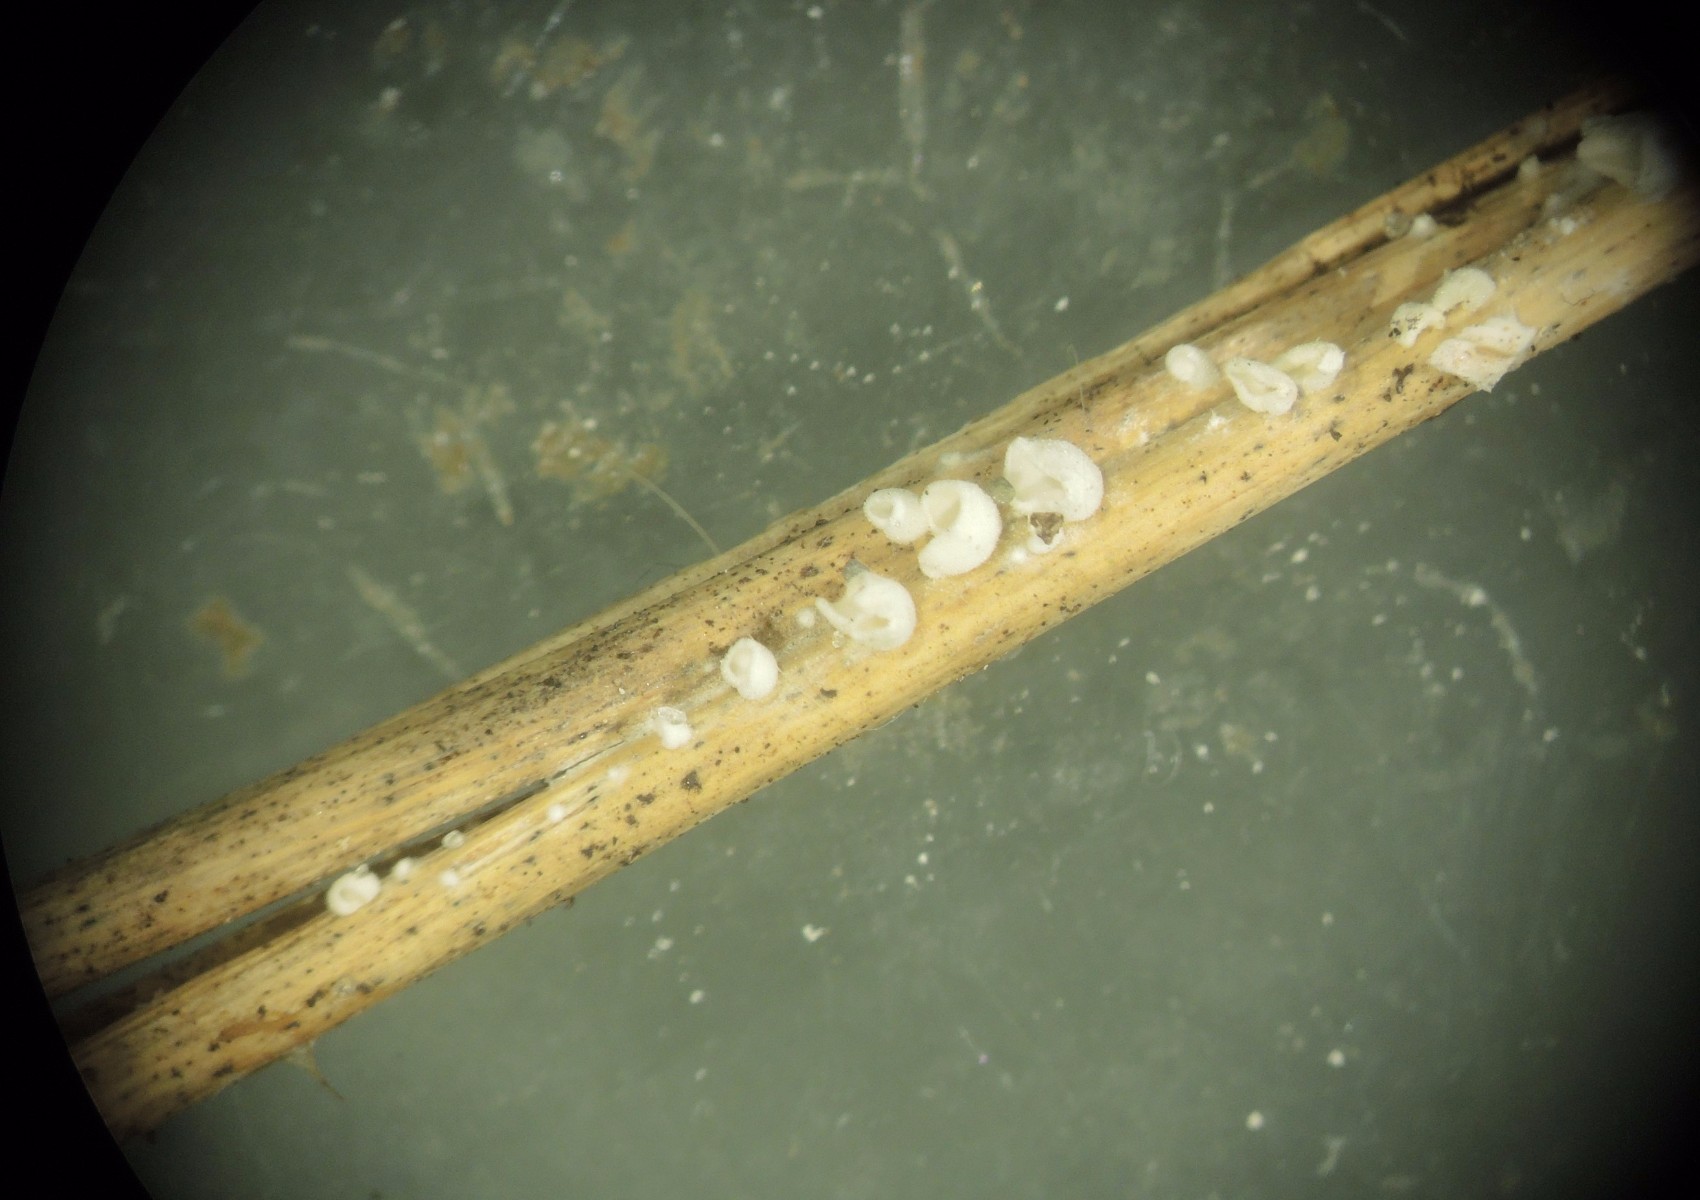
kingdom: Fungi
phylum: Basidiomycota
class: Agaricomycetes
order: Agaricales
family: Tricholomataceae
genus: Cellypha
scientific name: Cellypha goldbachii
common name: dråbeskål
